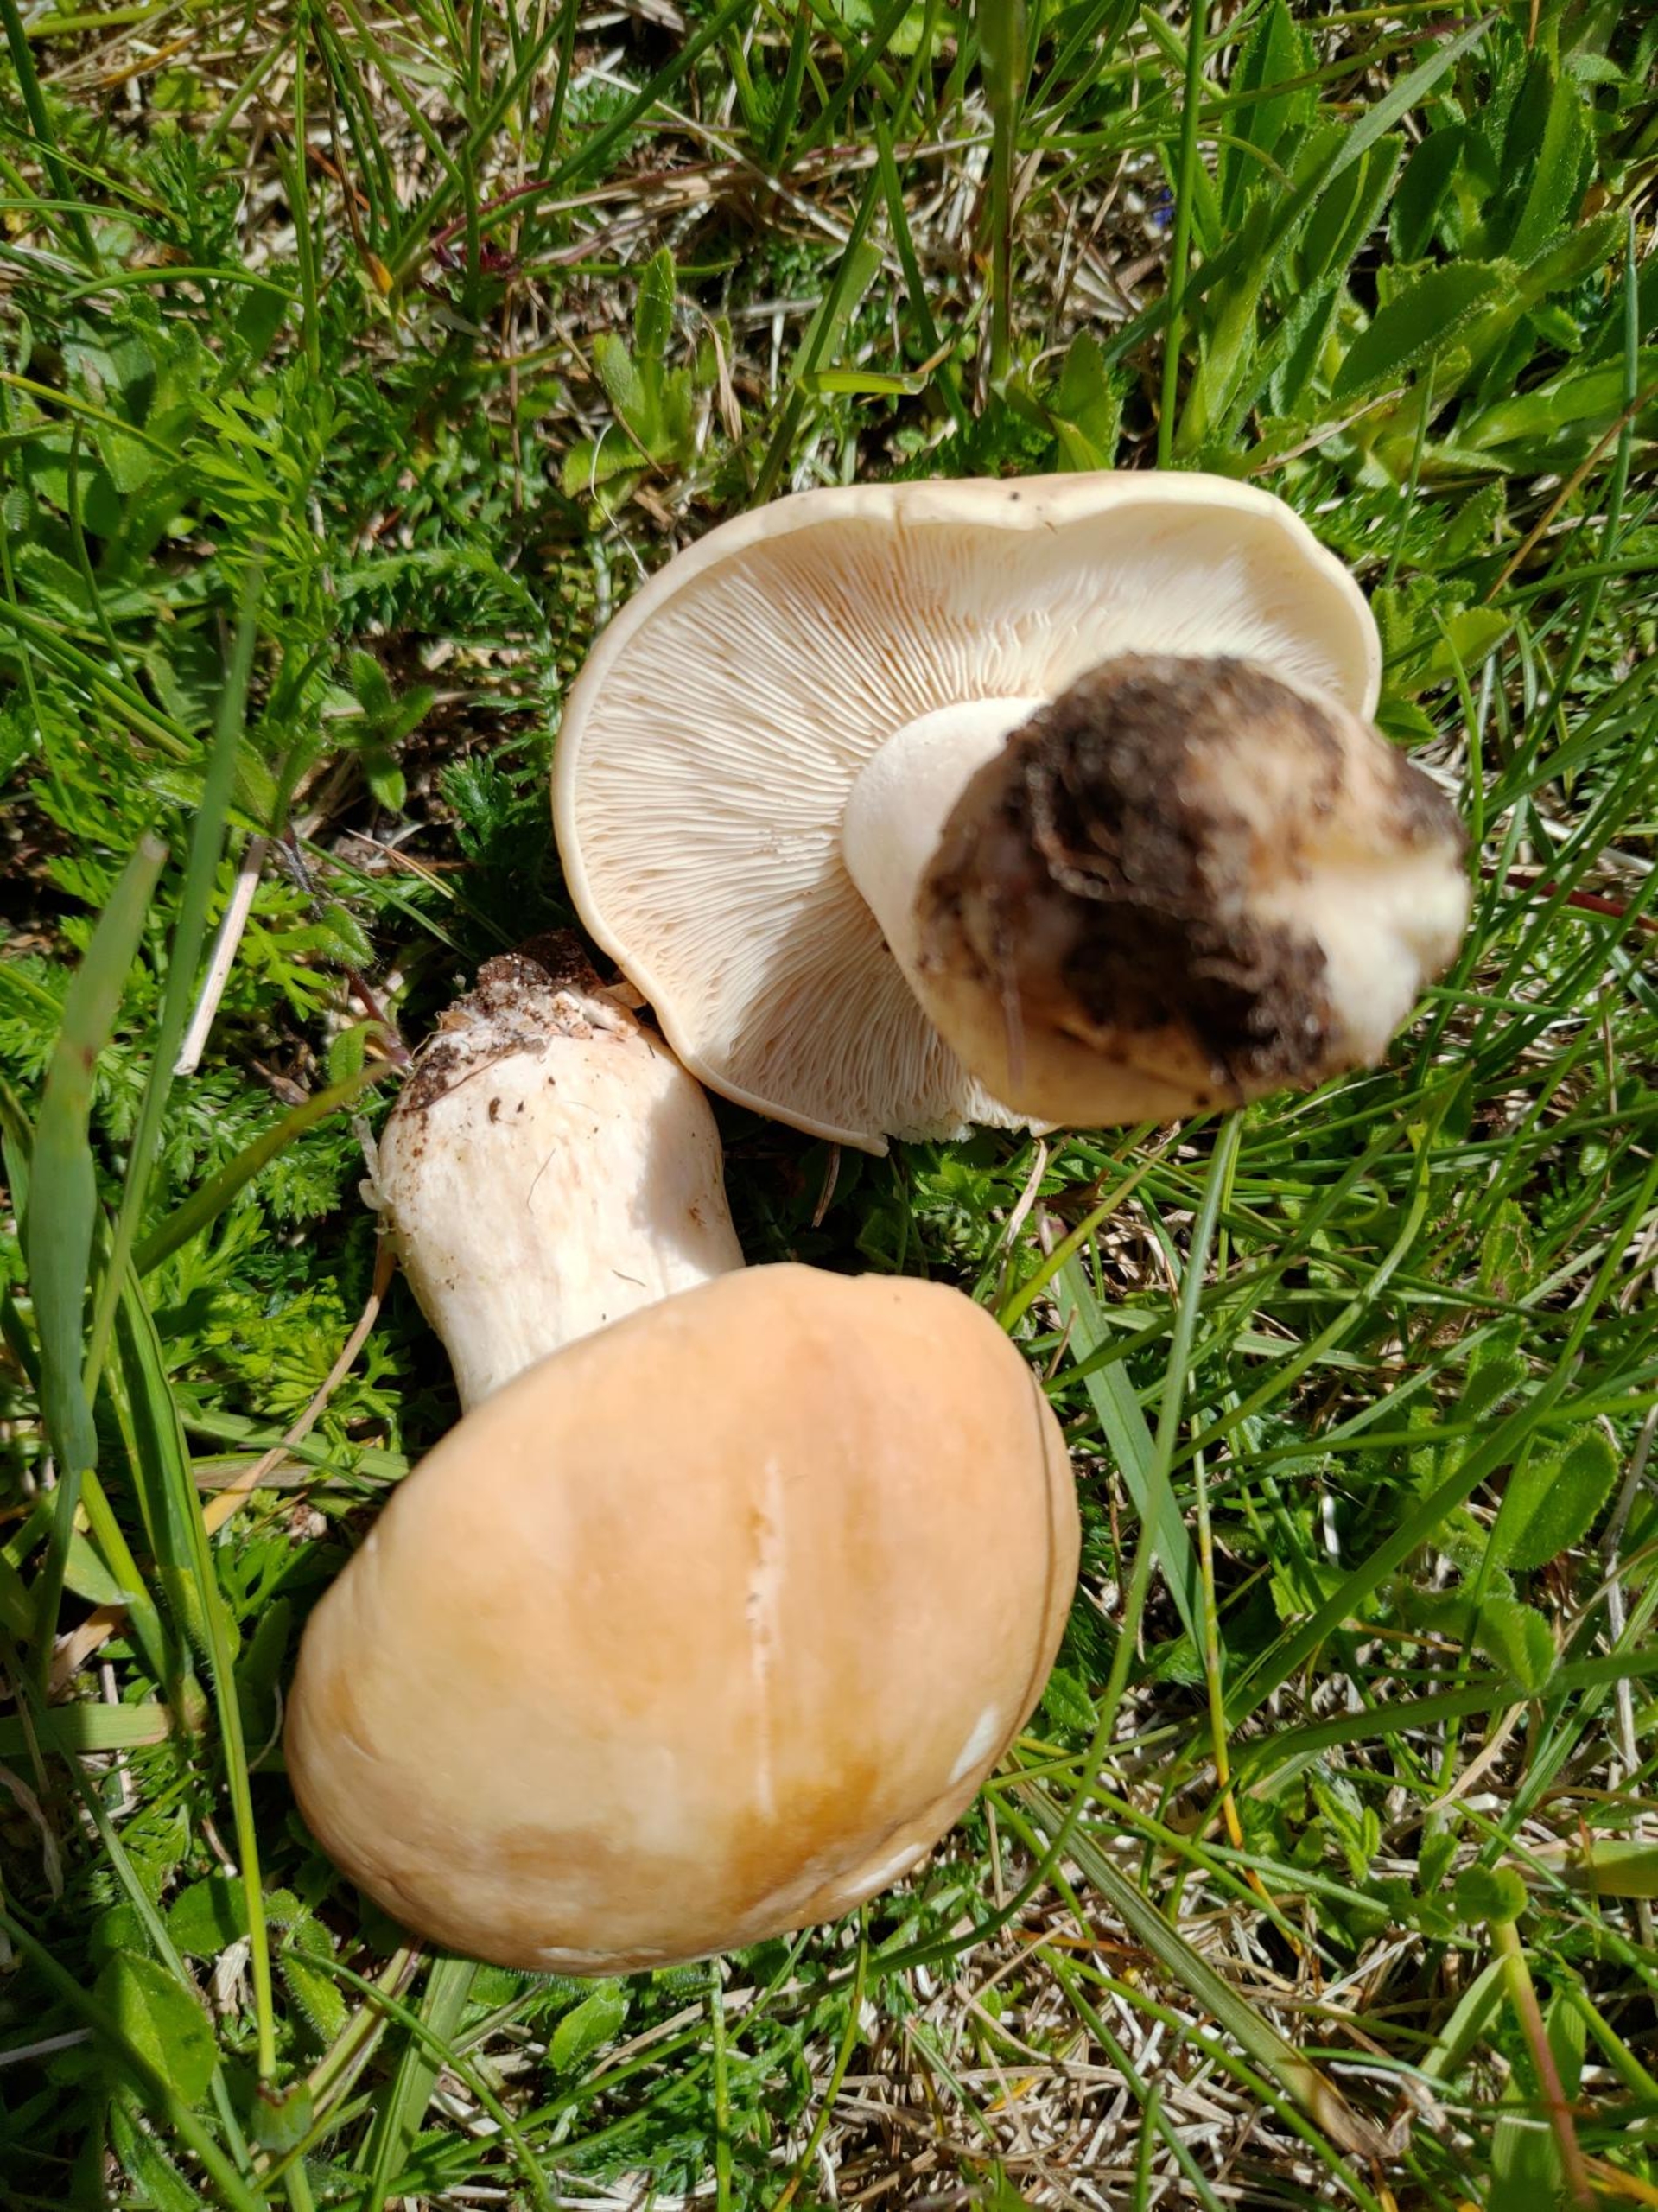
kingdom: Fungi
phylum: Basidiomycota
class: Agaricomycetes
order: Agaricales
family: Lyophyllaceae
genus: Calocybe
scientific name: Calocybe gambosa
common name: Vårmusseron
